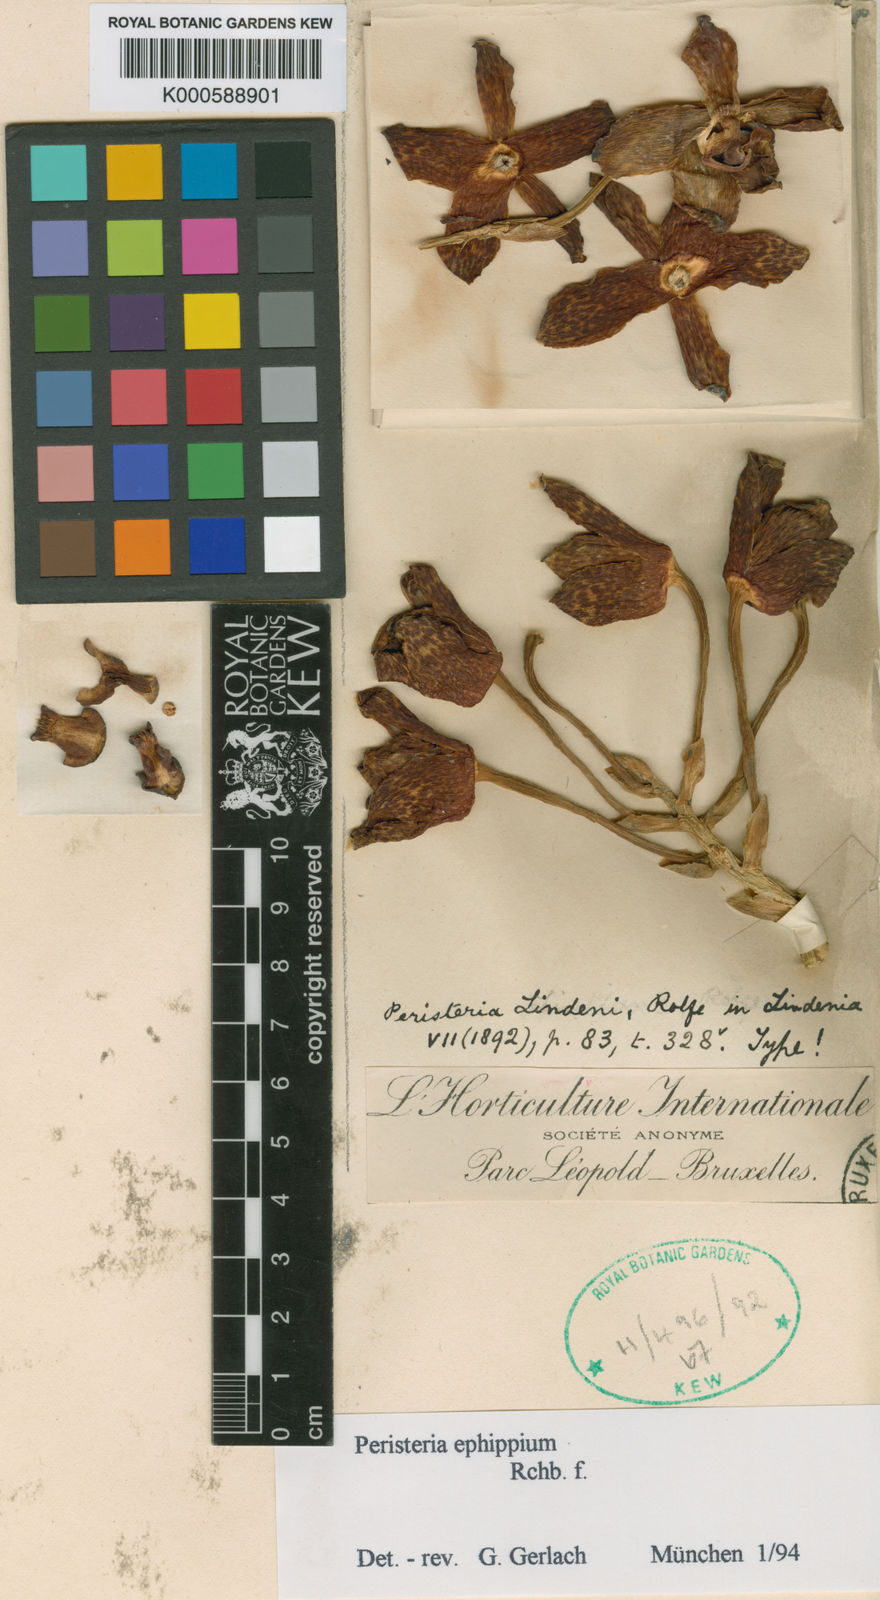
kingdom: Plantae
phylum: Tracheophyta
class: Liliopsida
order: Asparagales
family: Orchidaceae
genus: Peristeria
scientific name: Peristeria lindenii
